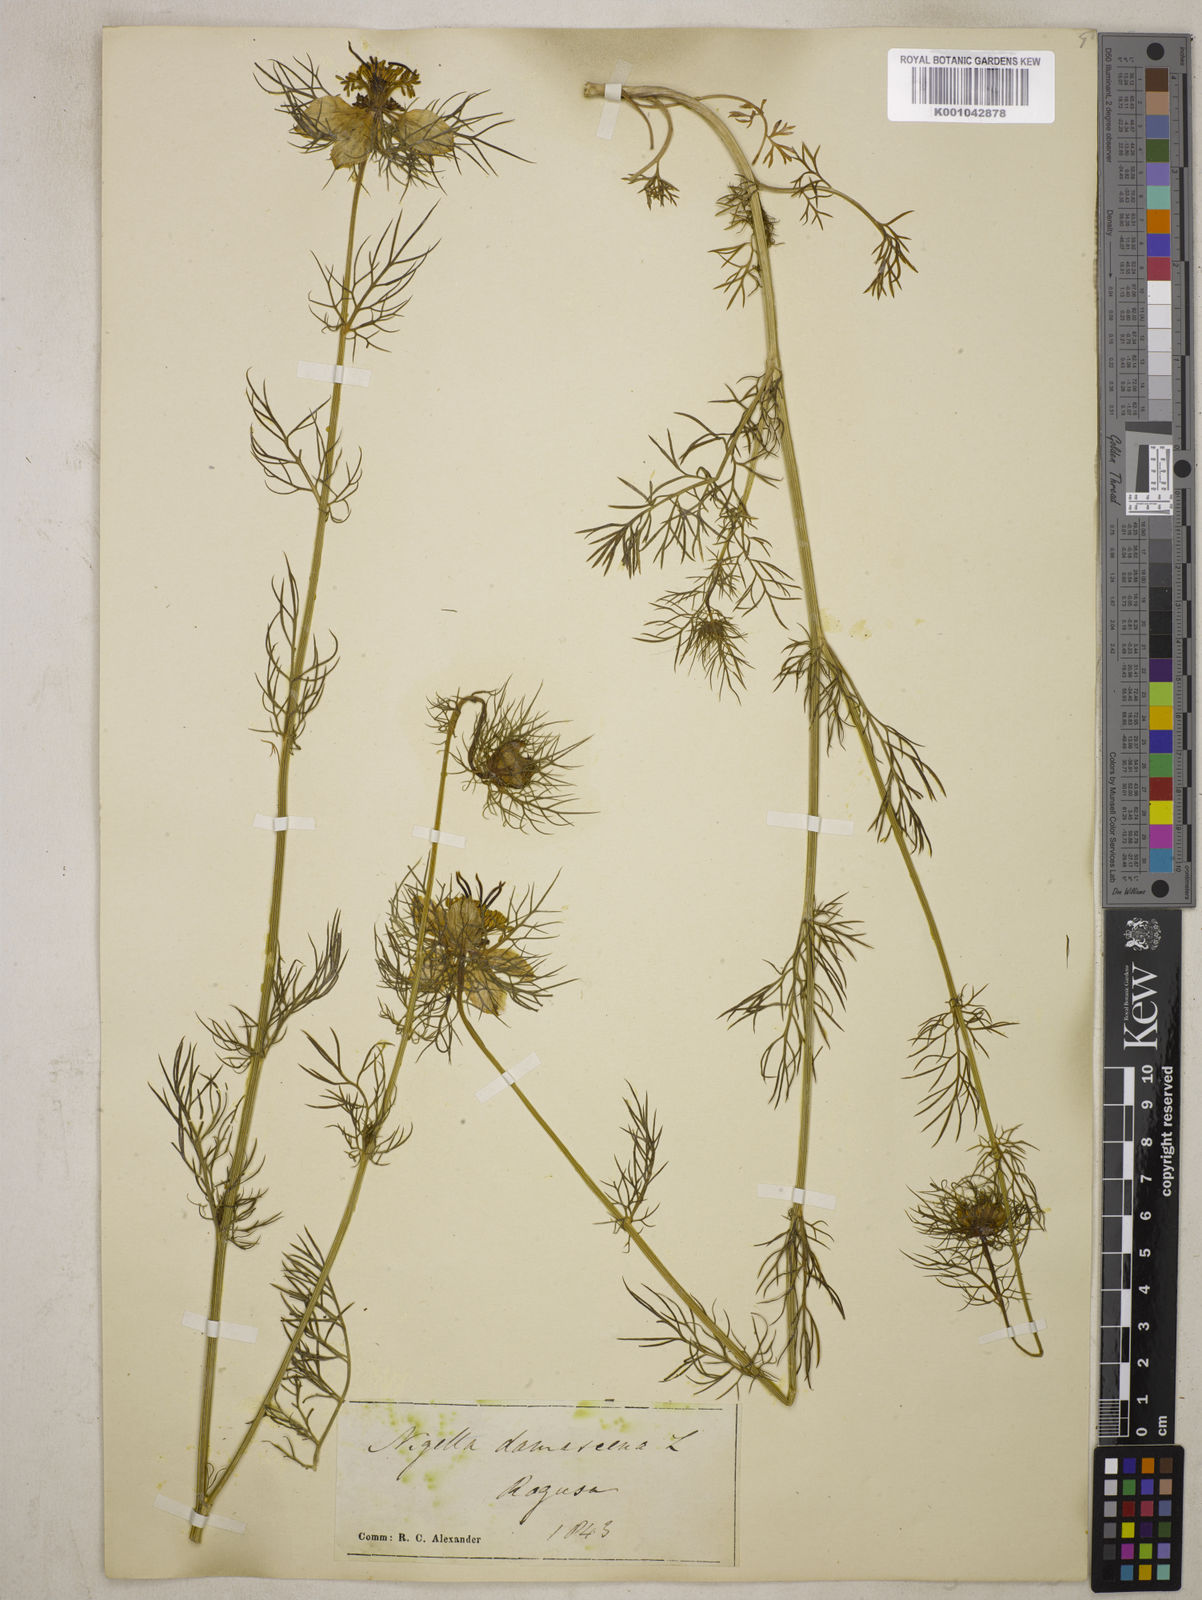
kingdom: Plantae
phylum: Tracheophyta
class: Magnoliopsida
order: Ranunculales
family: Ranunculaceae
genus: Nigella
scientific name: Nigella damascena
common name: Love-in-a-mist
